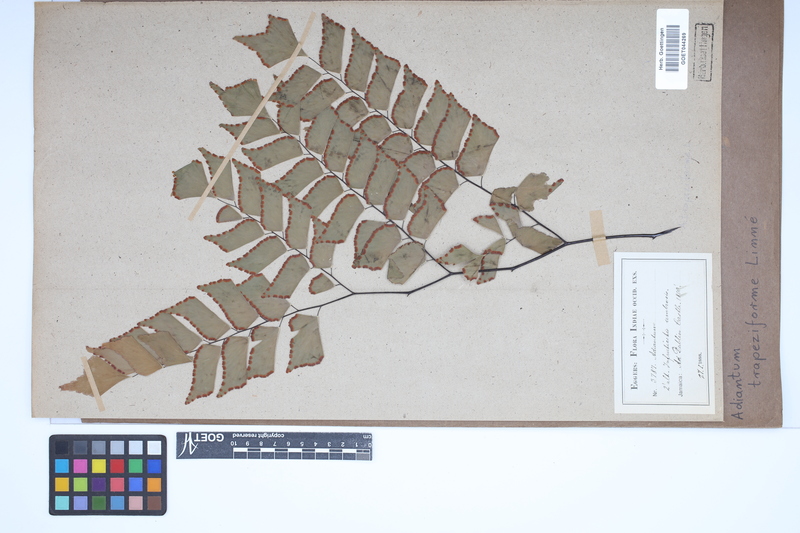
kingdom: Plantae
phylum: Tracheophyta
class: Polypodiopsida
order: Polypodiales
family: Pteridaceae
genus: Adiantum
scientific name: Adiantum trapeziforme
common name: Diamond maidenhair
